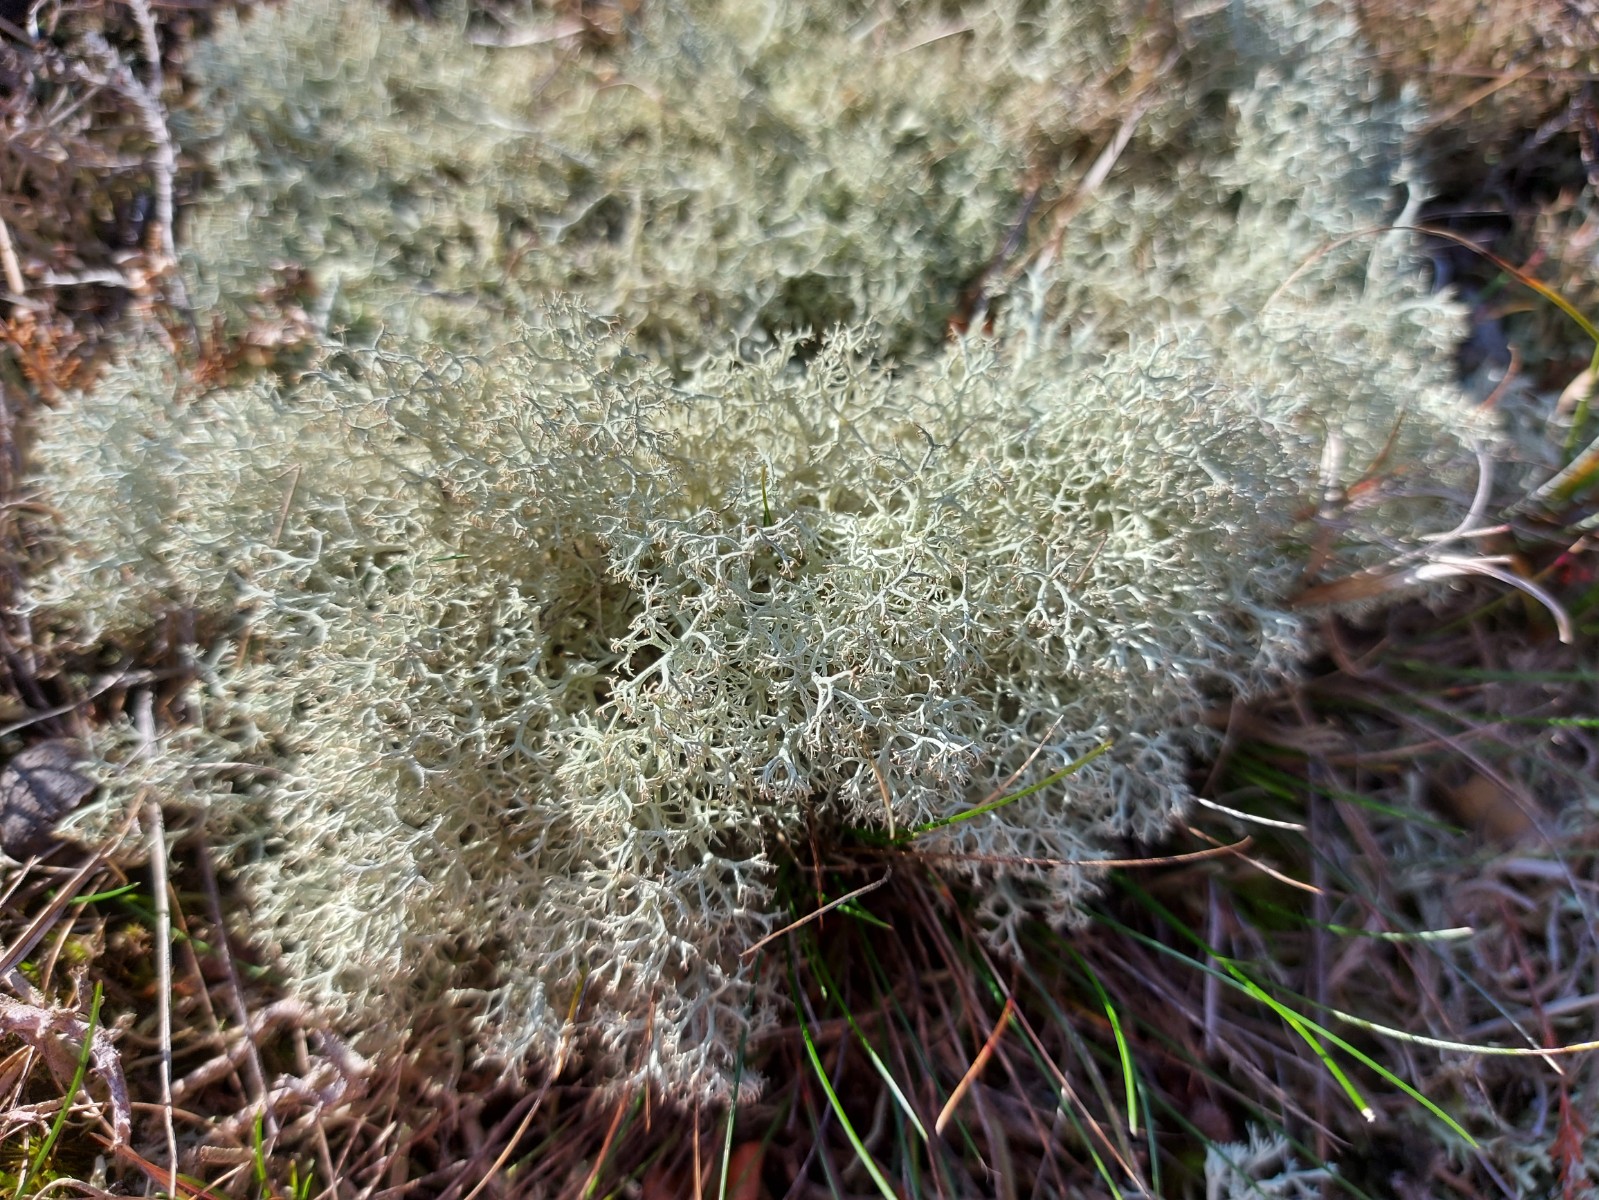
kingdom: Fungi
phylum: Ascomycota
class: Lecanoromycetes
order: Lecanorales
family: Cladoniaceae
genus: Cladonia
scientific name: Cladonia portentosa
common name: hede-rensdyrlav
